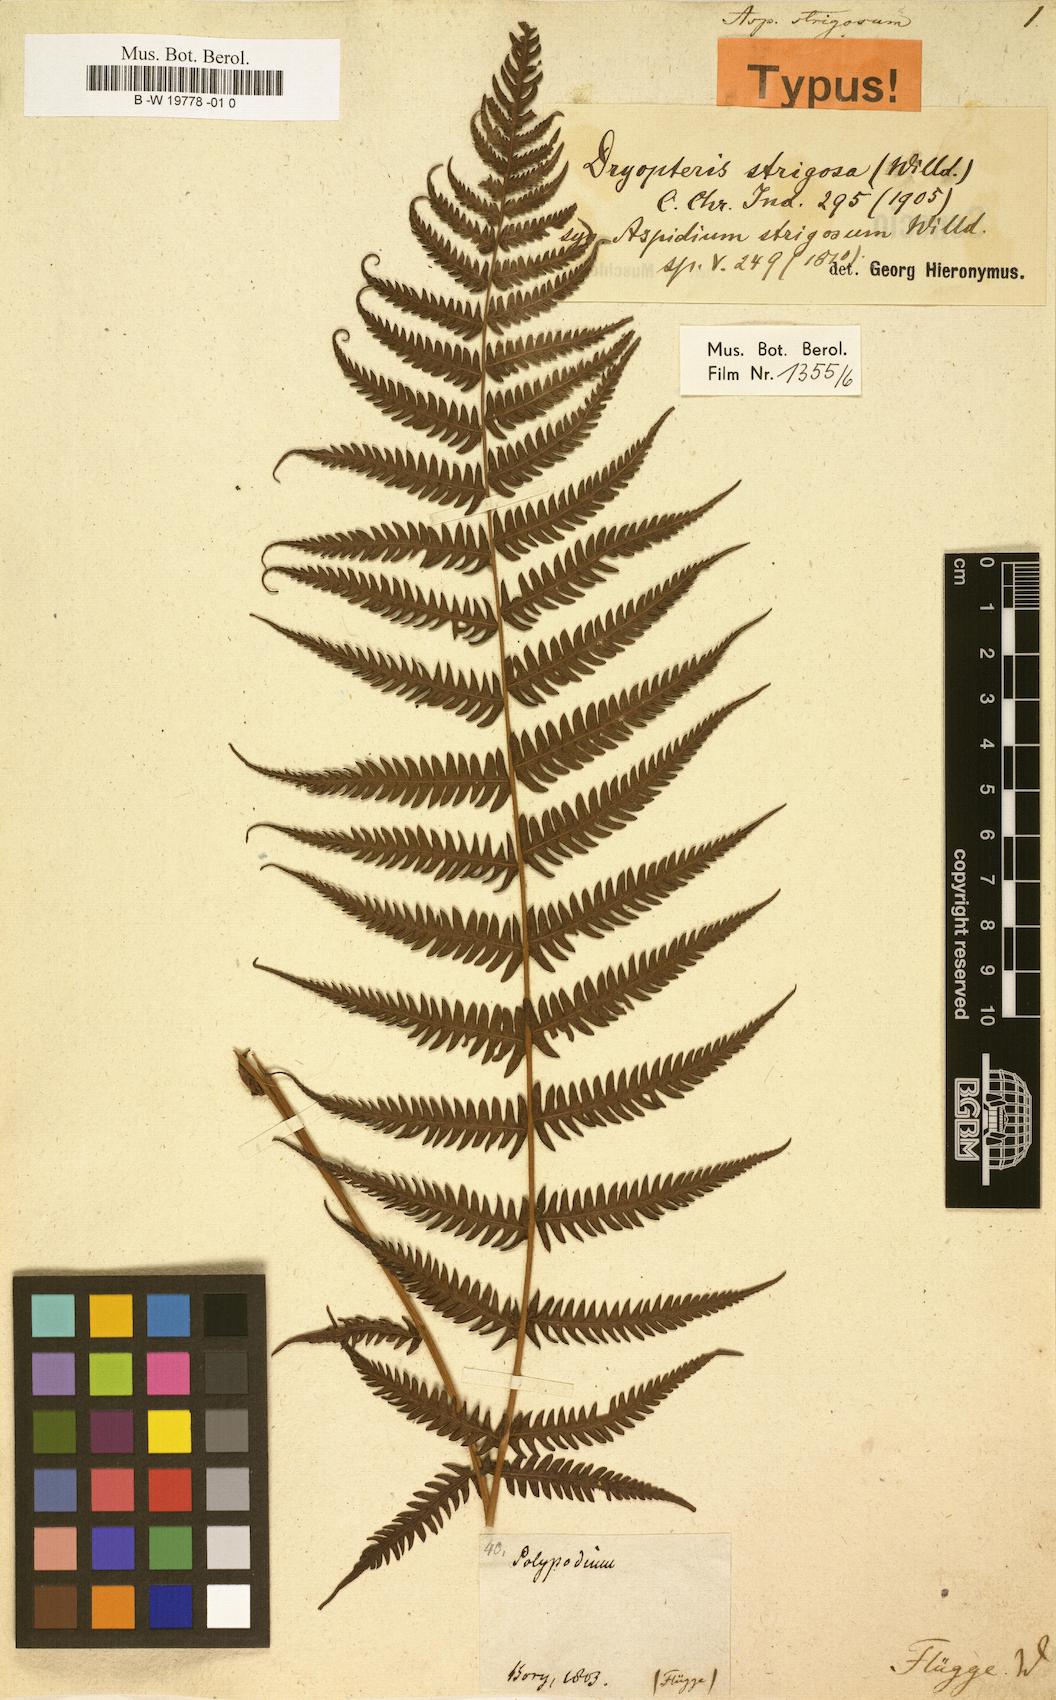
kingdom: Plantae
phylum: Tracheophyta
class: Polypodiopsida
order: Polypodiales
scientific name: Polypodiales
